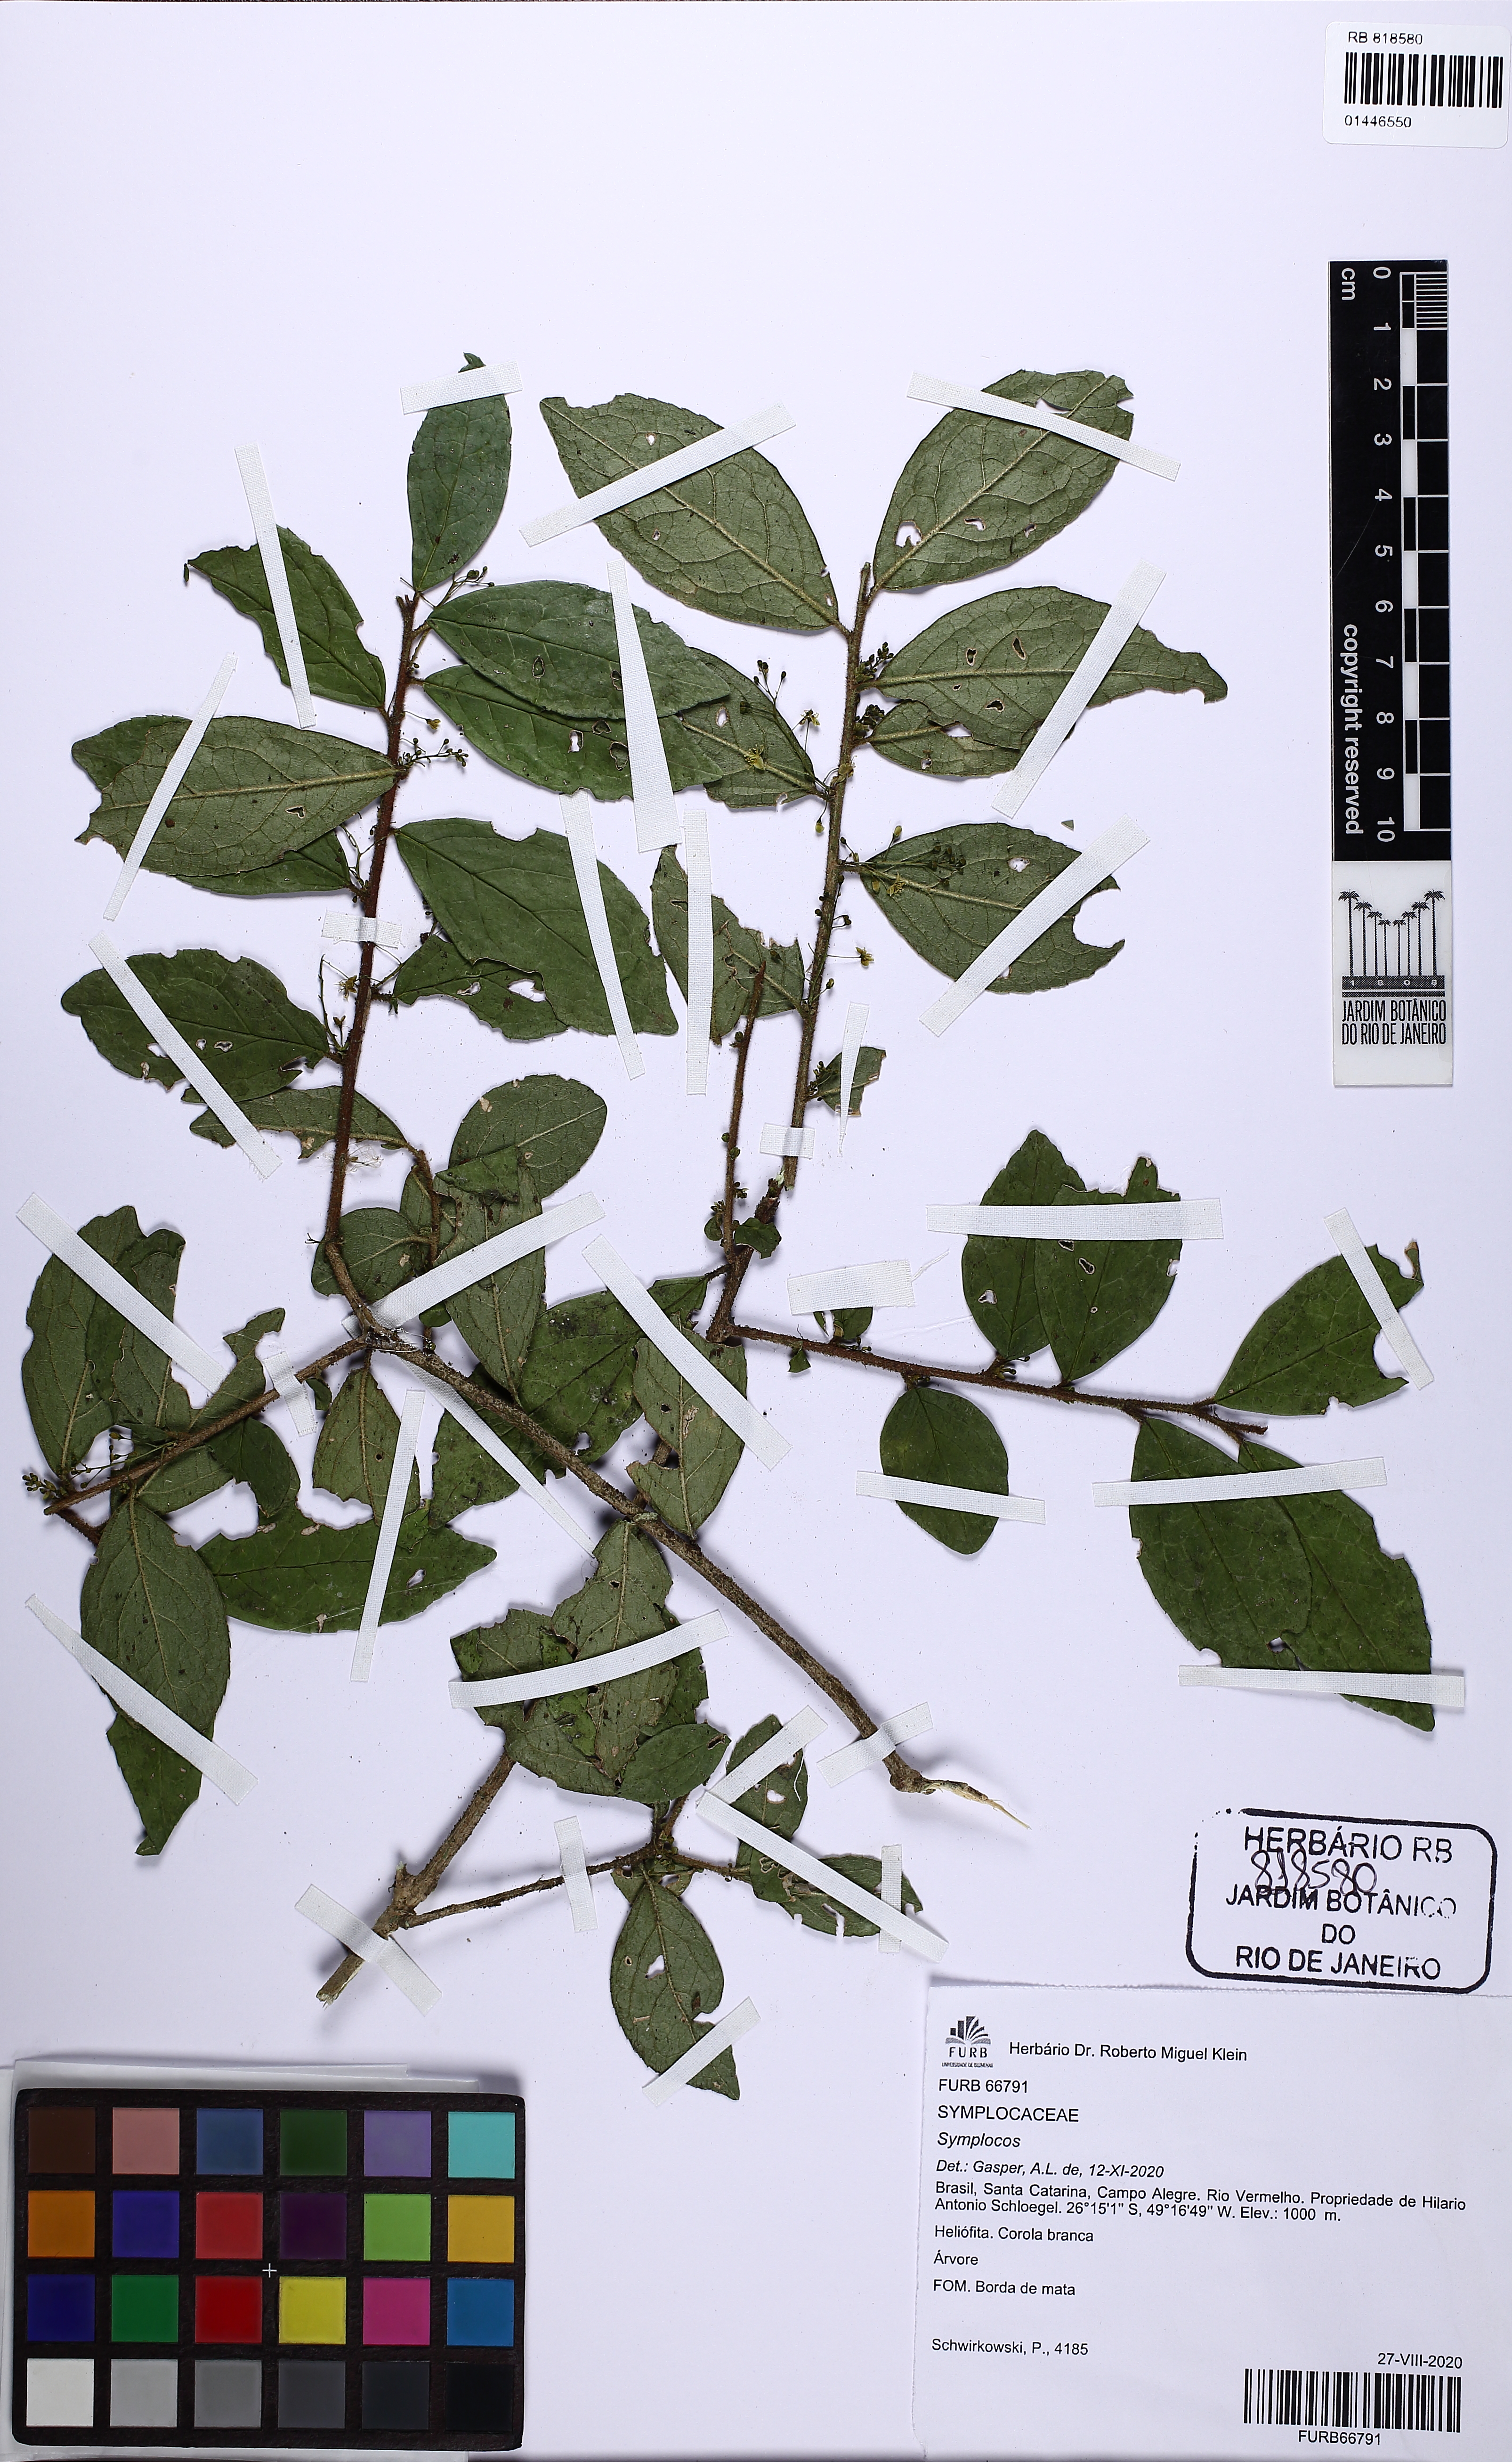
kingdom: Plantae
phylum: Tracheophyta
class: Magnoliopsida
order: Ericales
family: Symplocaceae
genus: Symplocos
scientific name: Symplocos
